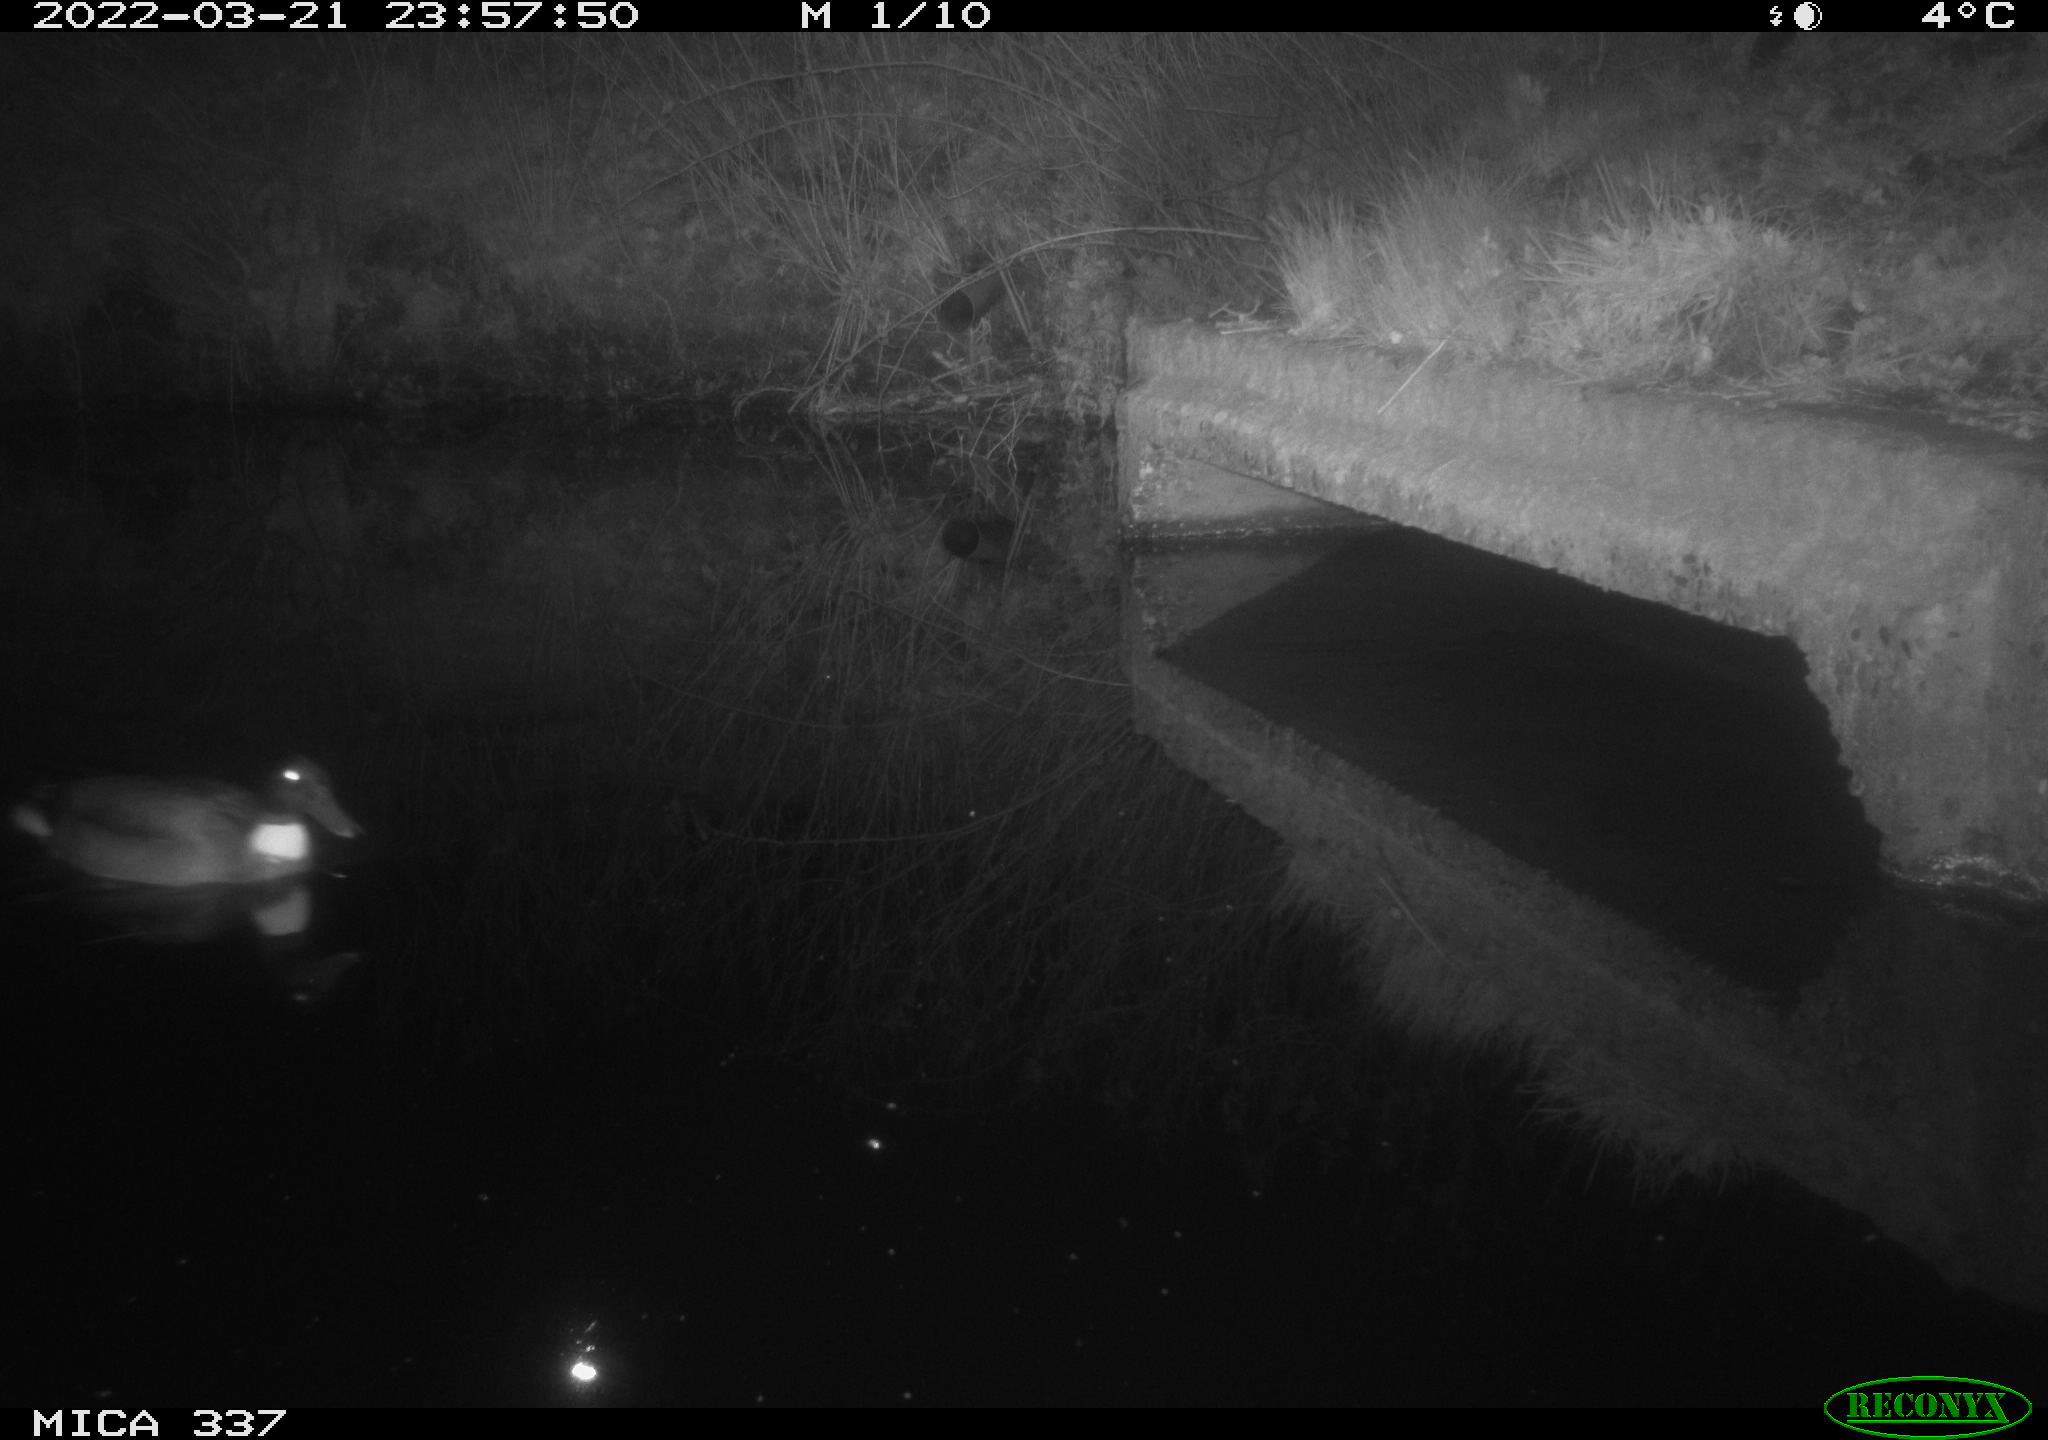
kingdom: Animalia
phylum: Chordata
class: Aves
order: Anseriformes
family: Anatidae
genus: Anas
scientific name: Anas platyrhynchos
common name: Mallard
